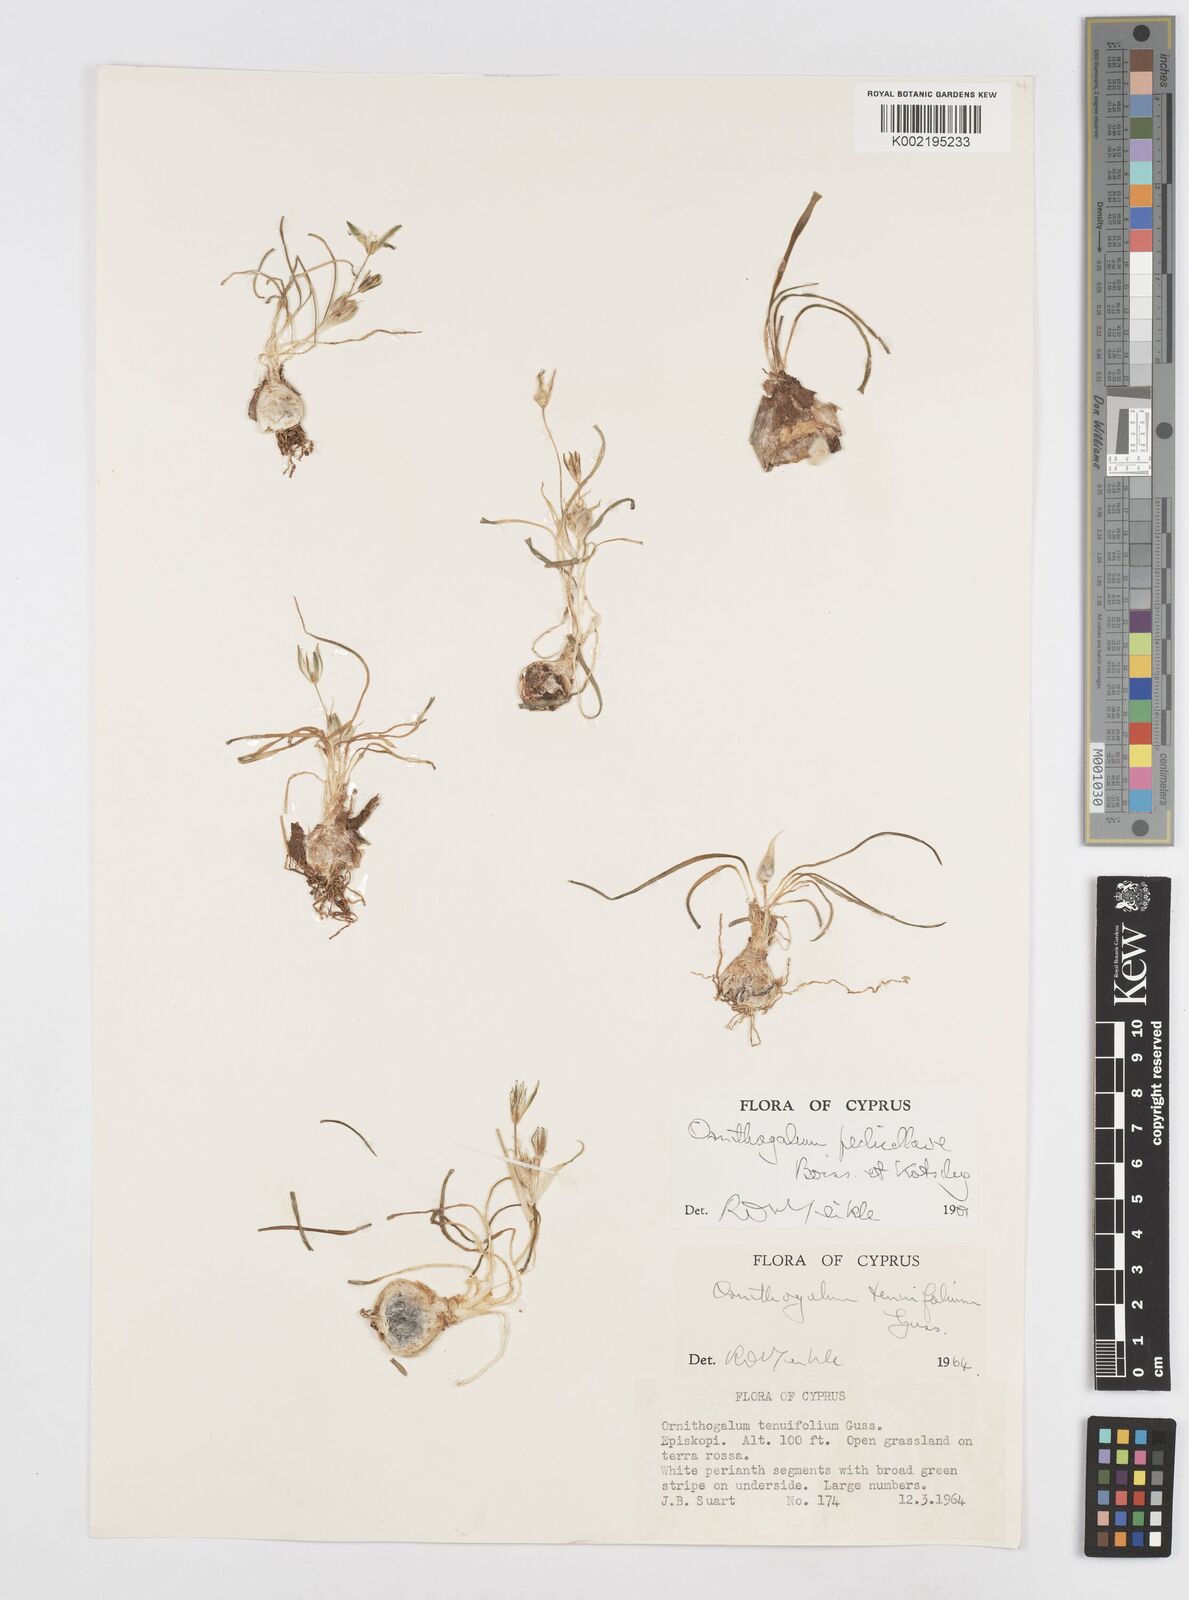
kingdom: Plantae
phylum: Tracheophyta
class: Liliopsida
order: Asparagales
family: Asparagaceae
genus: Ornithogalum
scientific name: Ornithogalum
